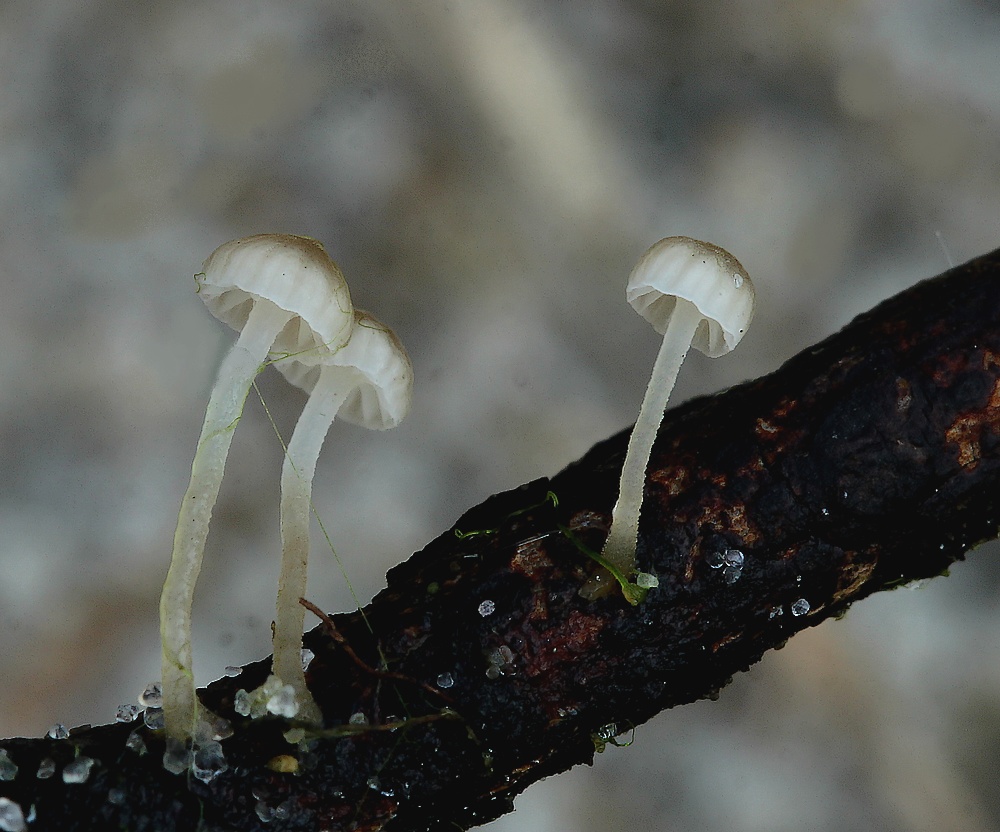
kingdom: Fungi
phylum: Basidiomycota
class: Agaricomycetes
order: Agaricales
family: Porotheleaceae
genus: Phloeomana
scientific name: Phloeomana speirea
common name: kvist-huesvamp
